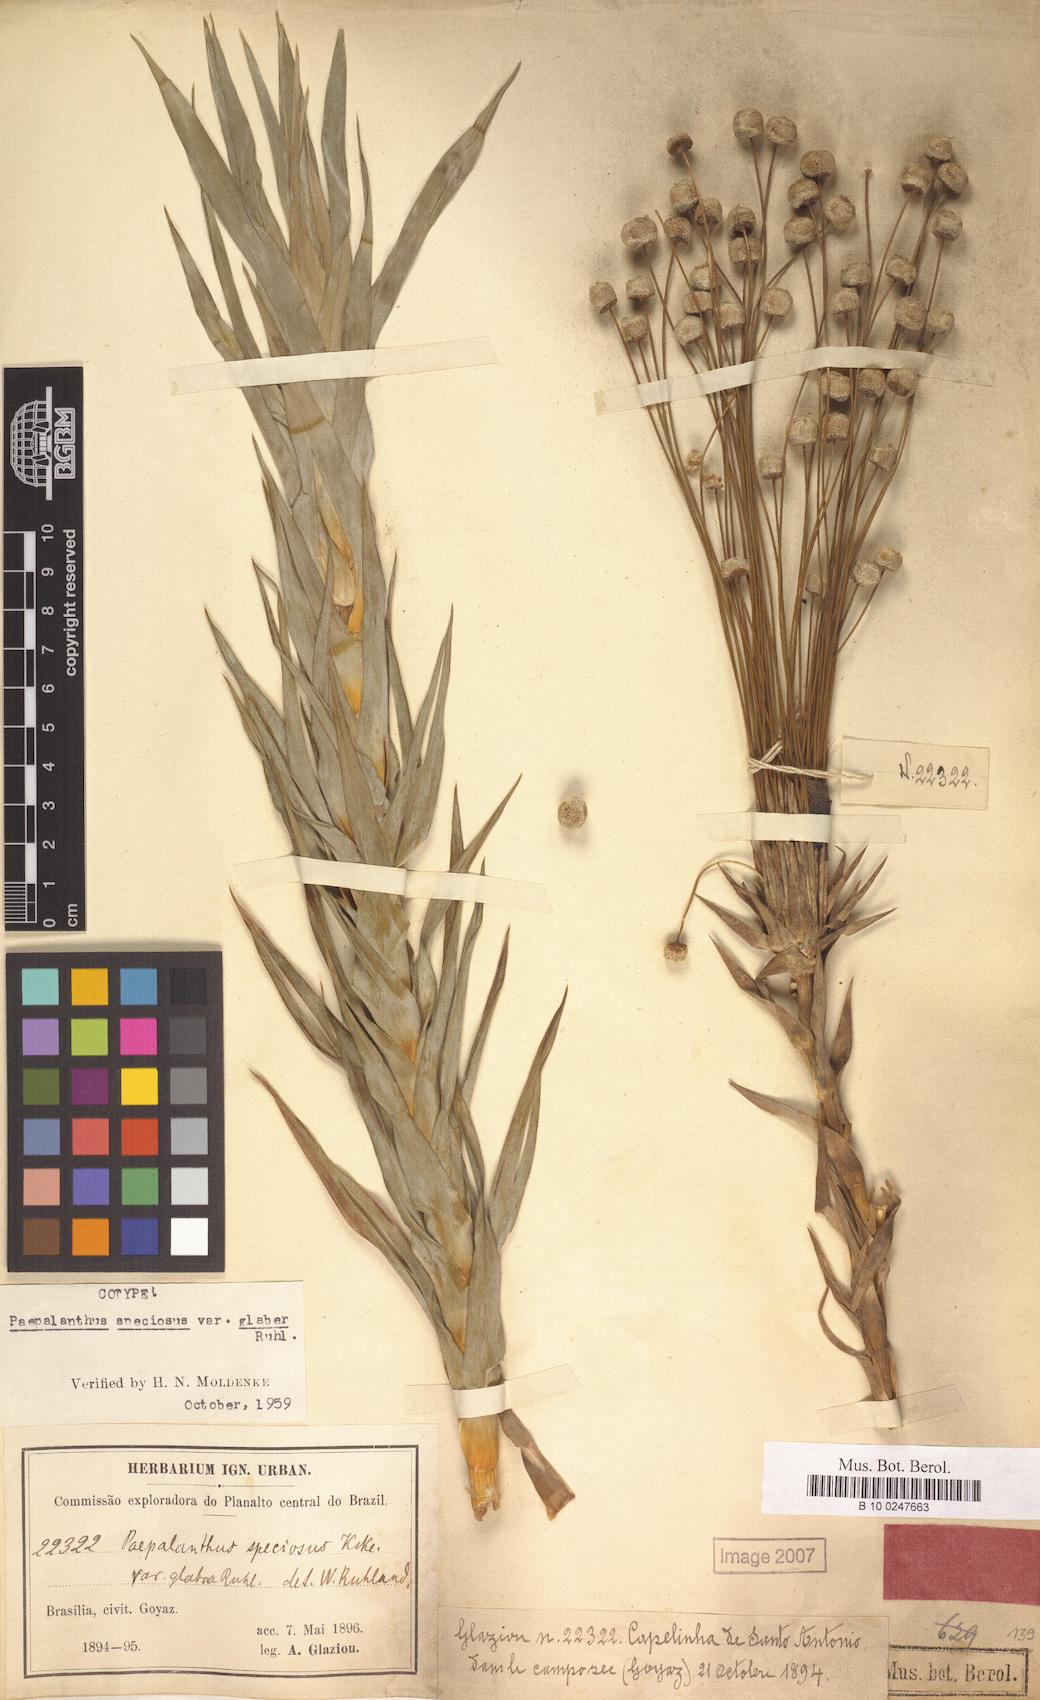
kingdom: Plantae
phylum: Tracheophyta
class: Liliopsida
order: Poales
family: Eriocaulaceae
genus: Paepalanthus
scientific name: Paepalanthus chiquitensis
